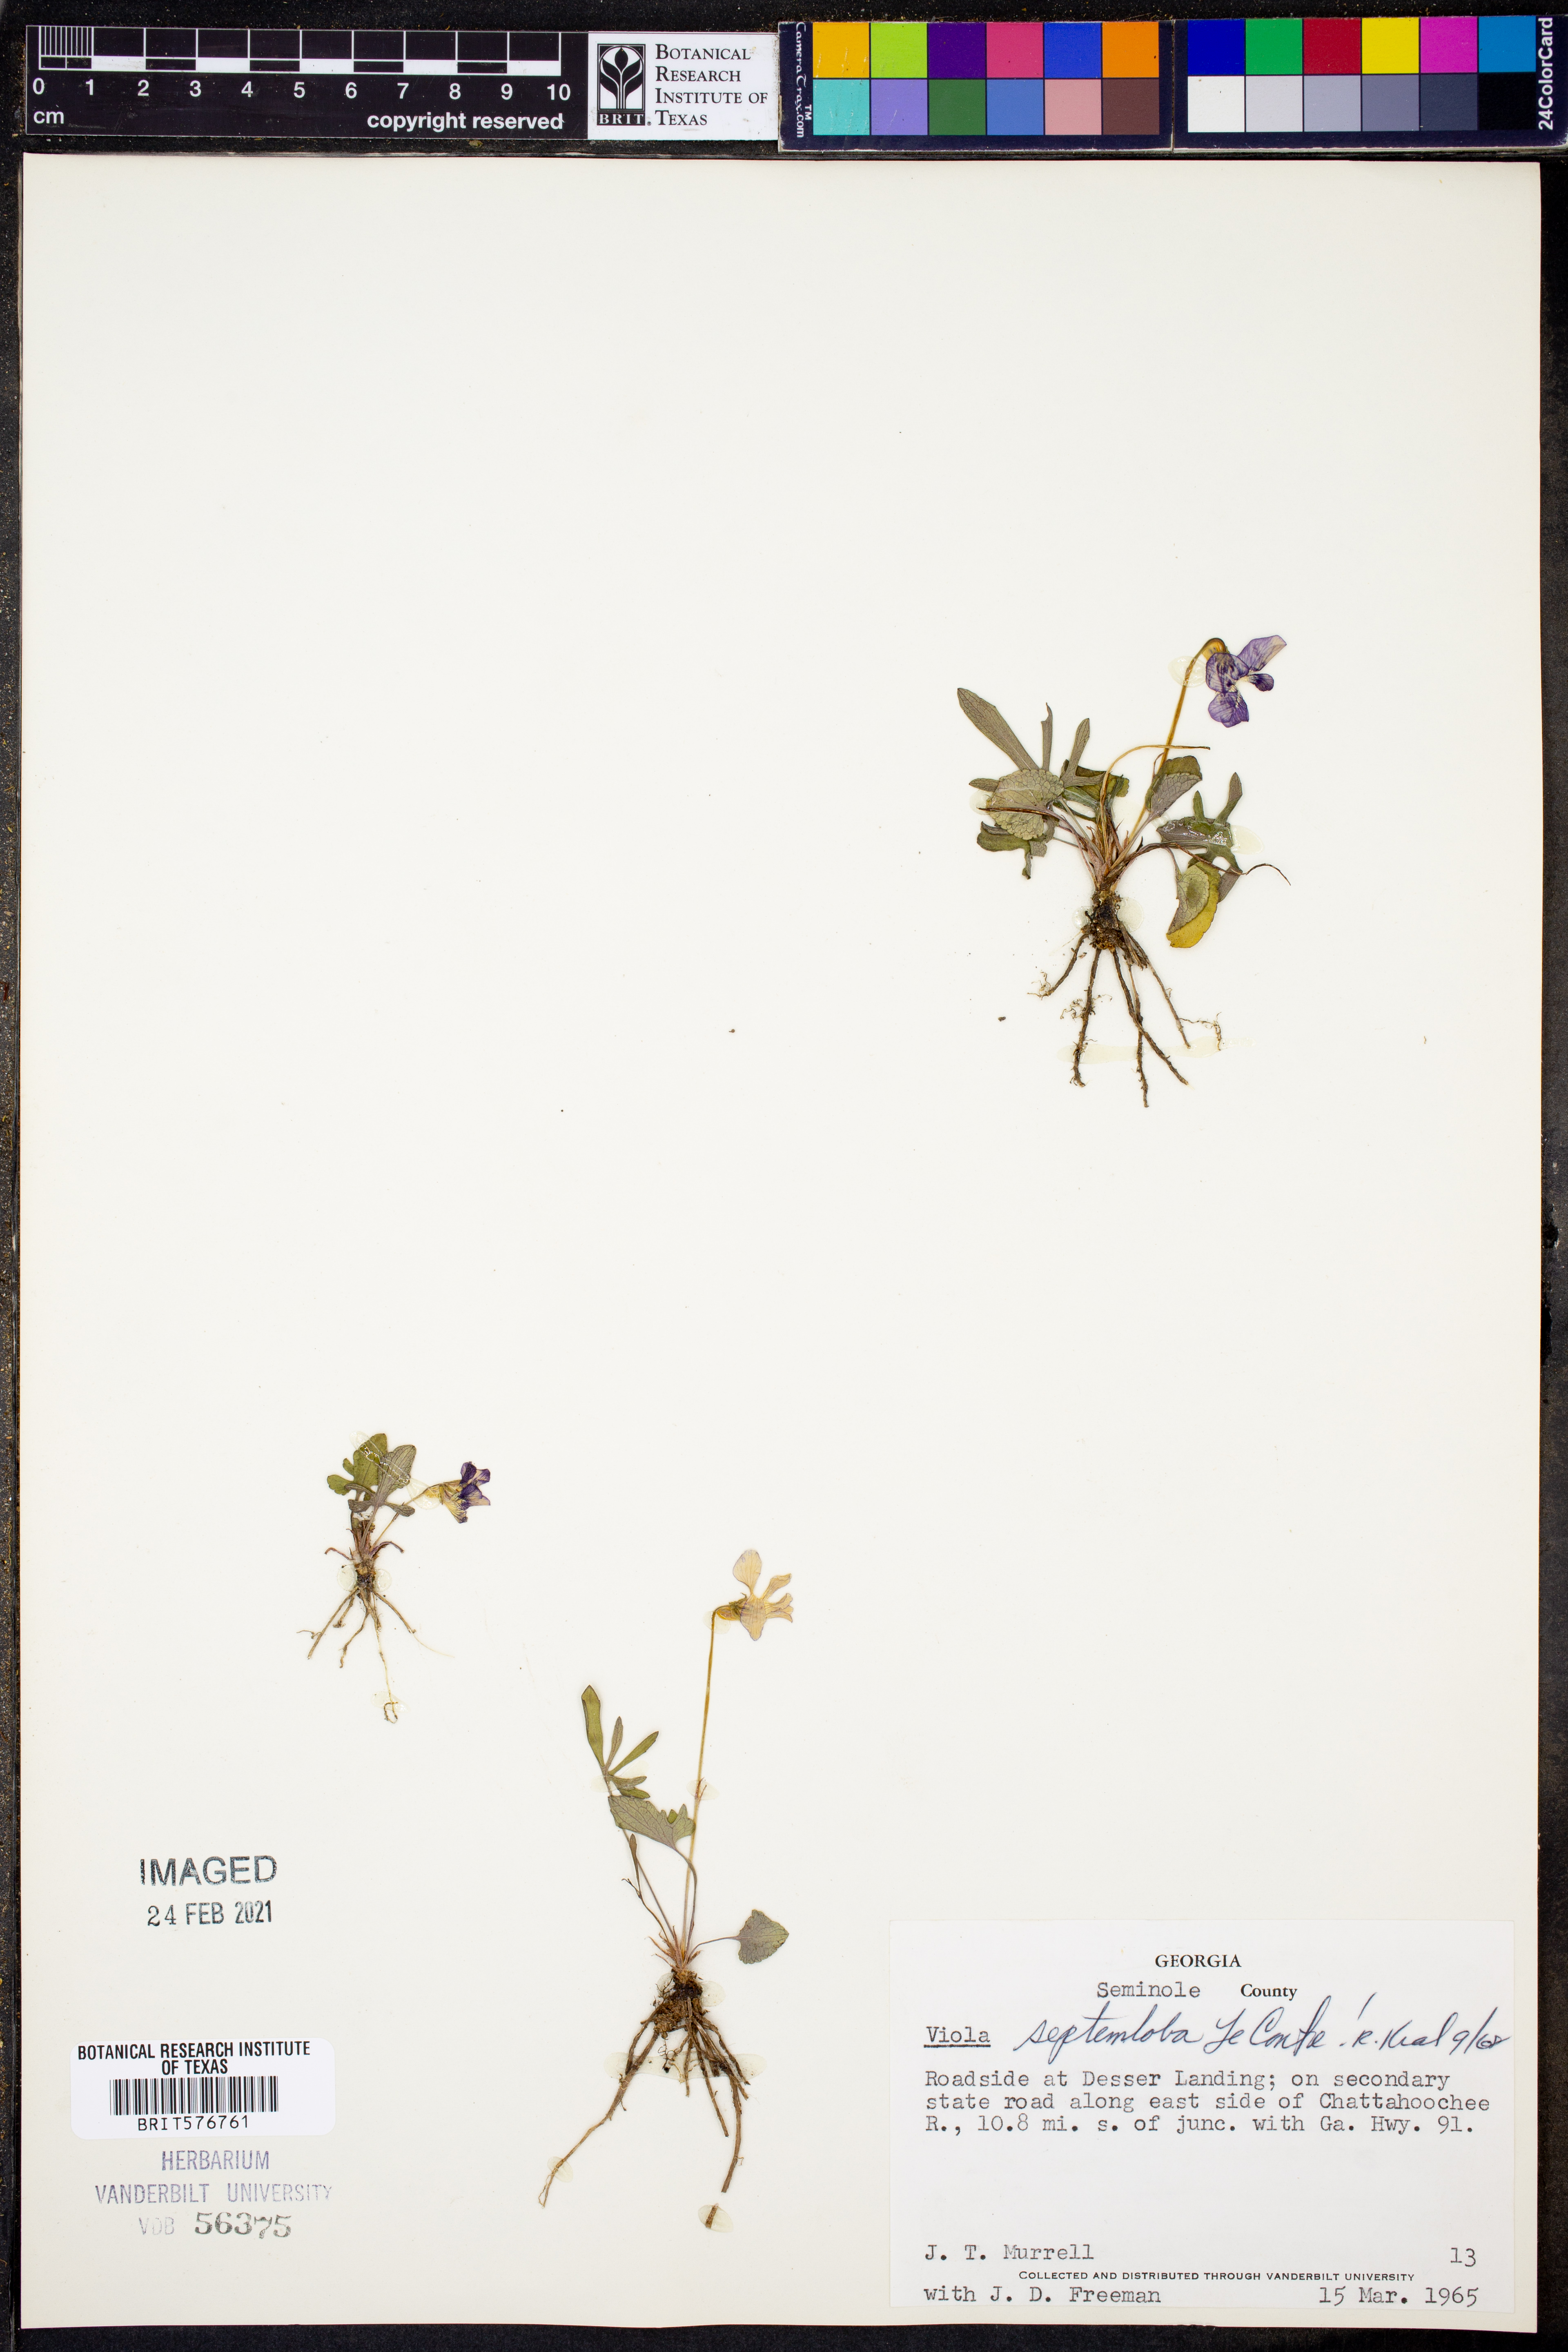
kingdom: Plantae
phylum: Tracheophyta
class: Magnoliopsida
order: Malpighiales
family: Violaceae
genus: Viola
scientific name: Viola septemloba
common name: Southern coast violet
